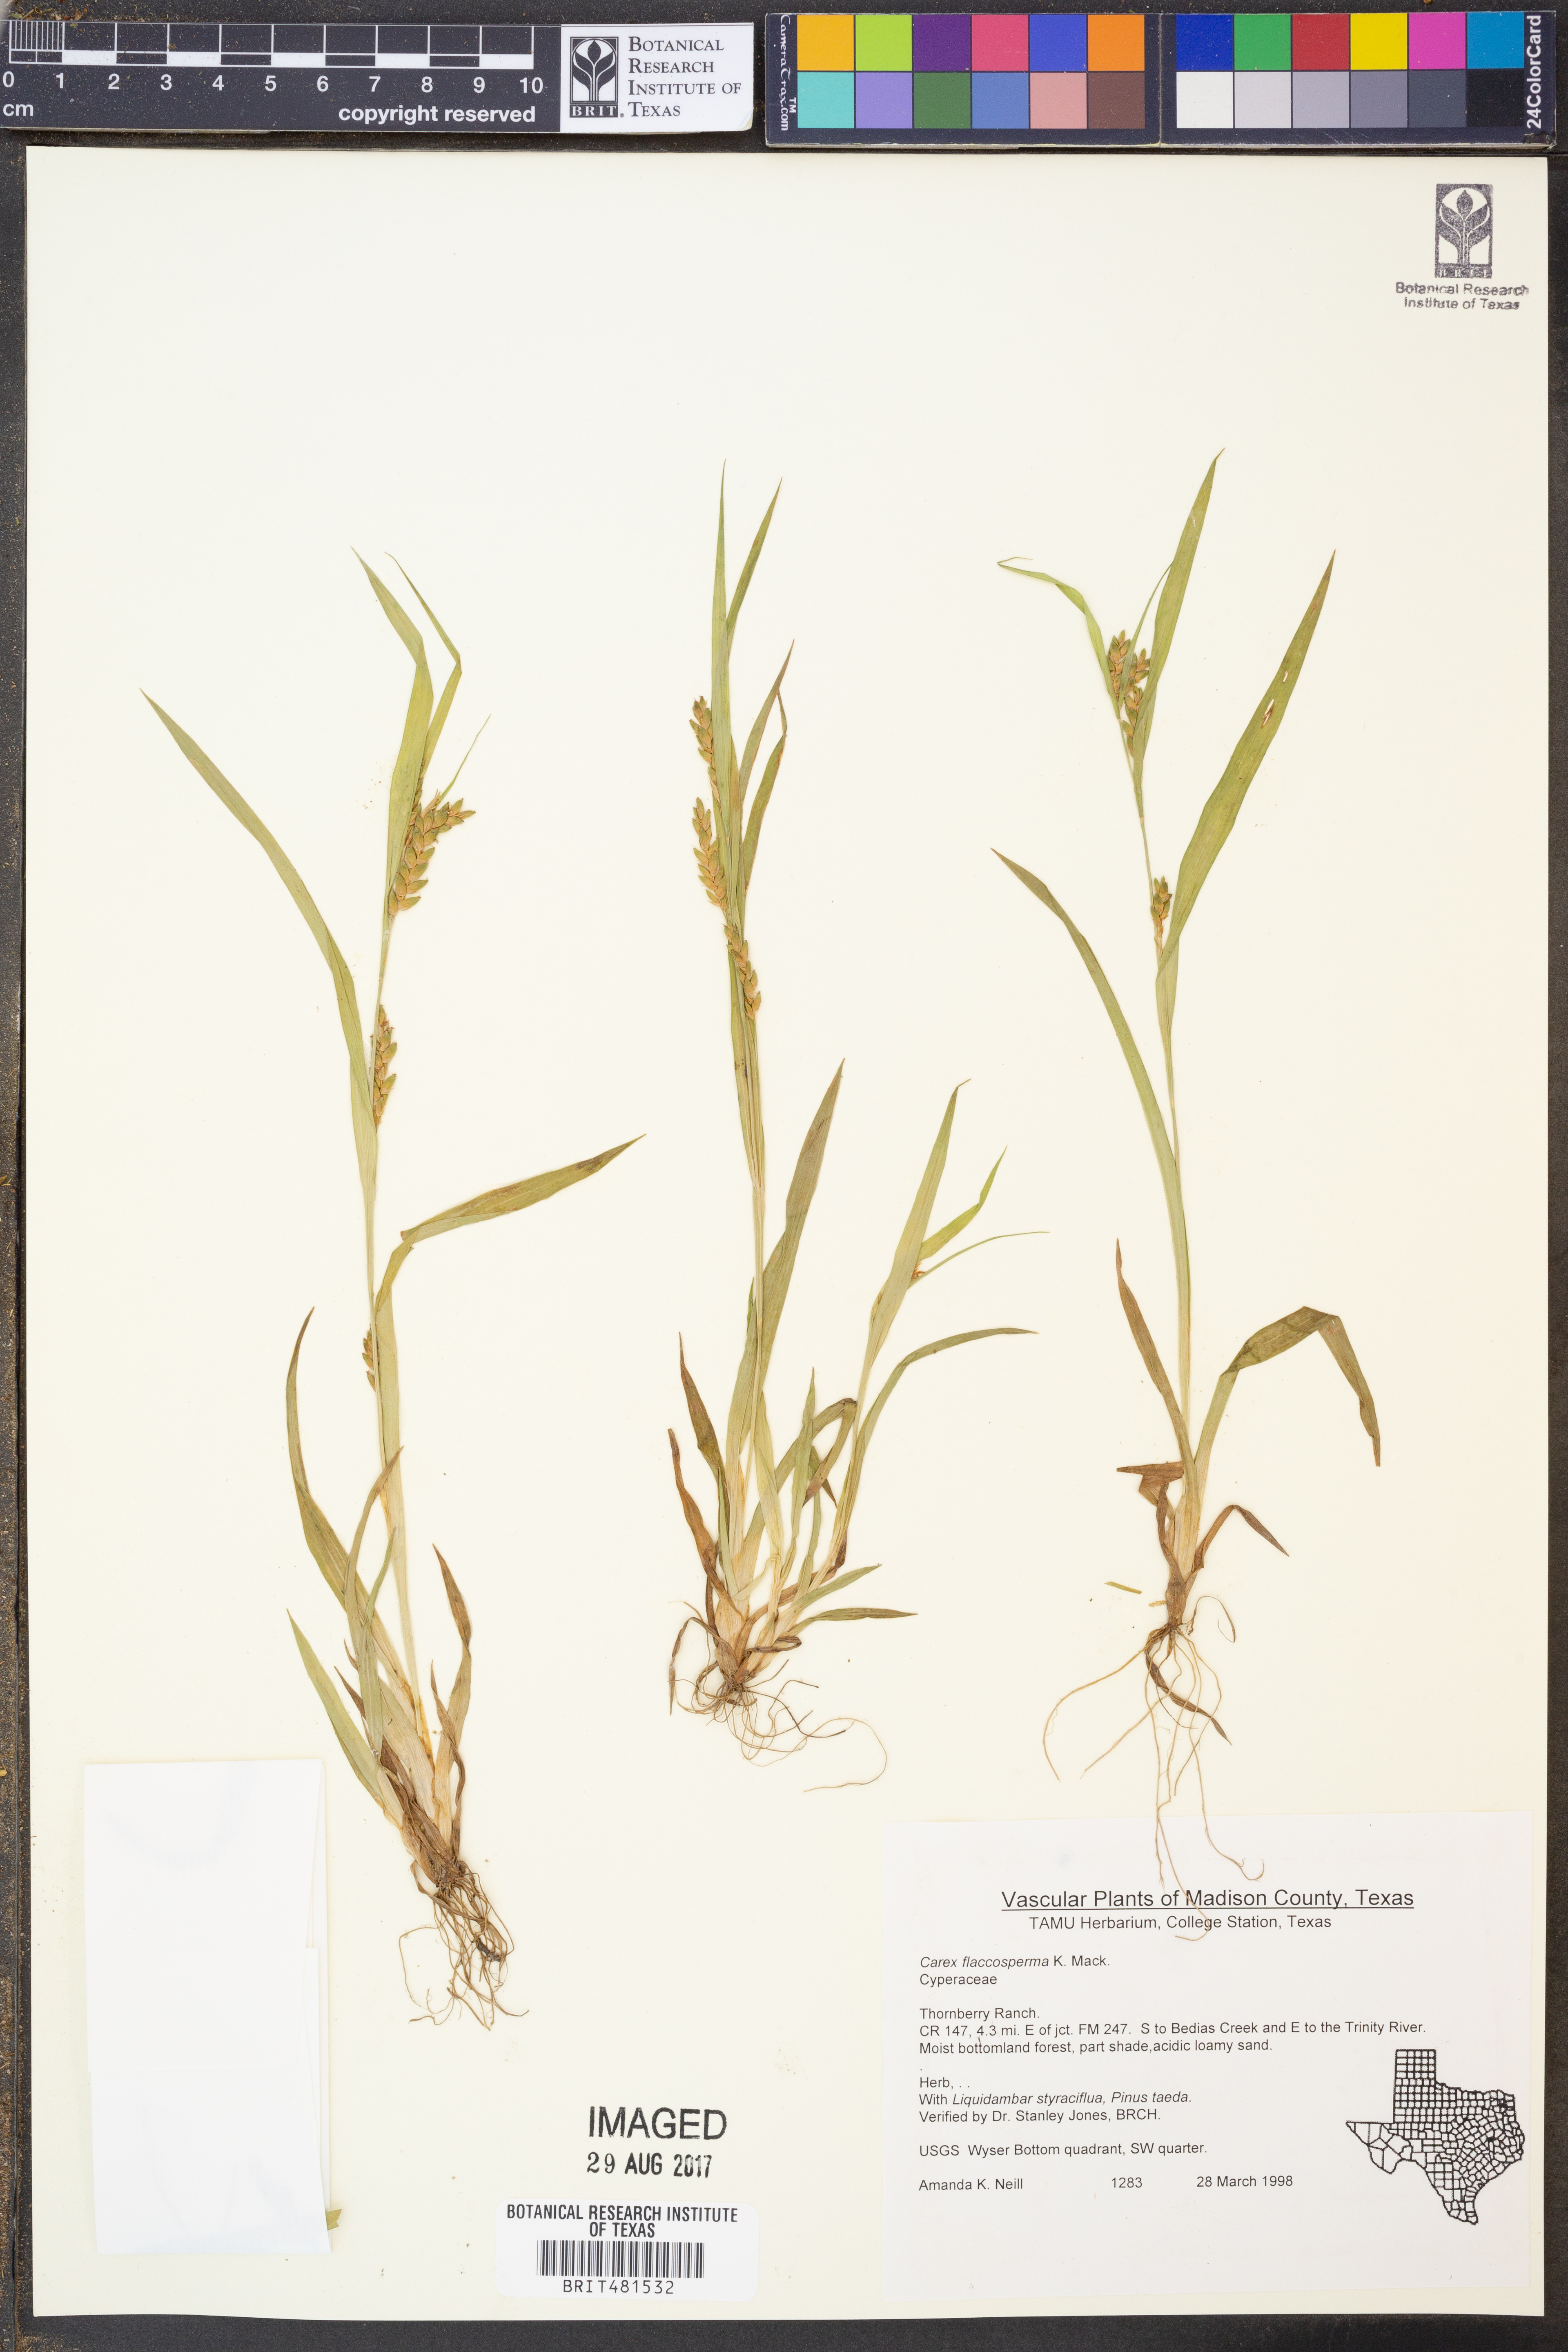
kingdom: Plantae
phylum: Tracheophyta
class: Liliopsida
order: Poales
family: Cyperaceae
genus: Carex
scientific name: Carex flaccosperma
